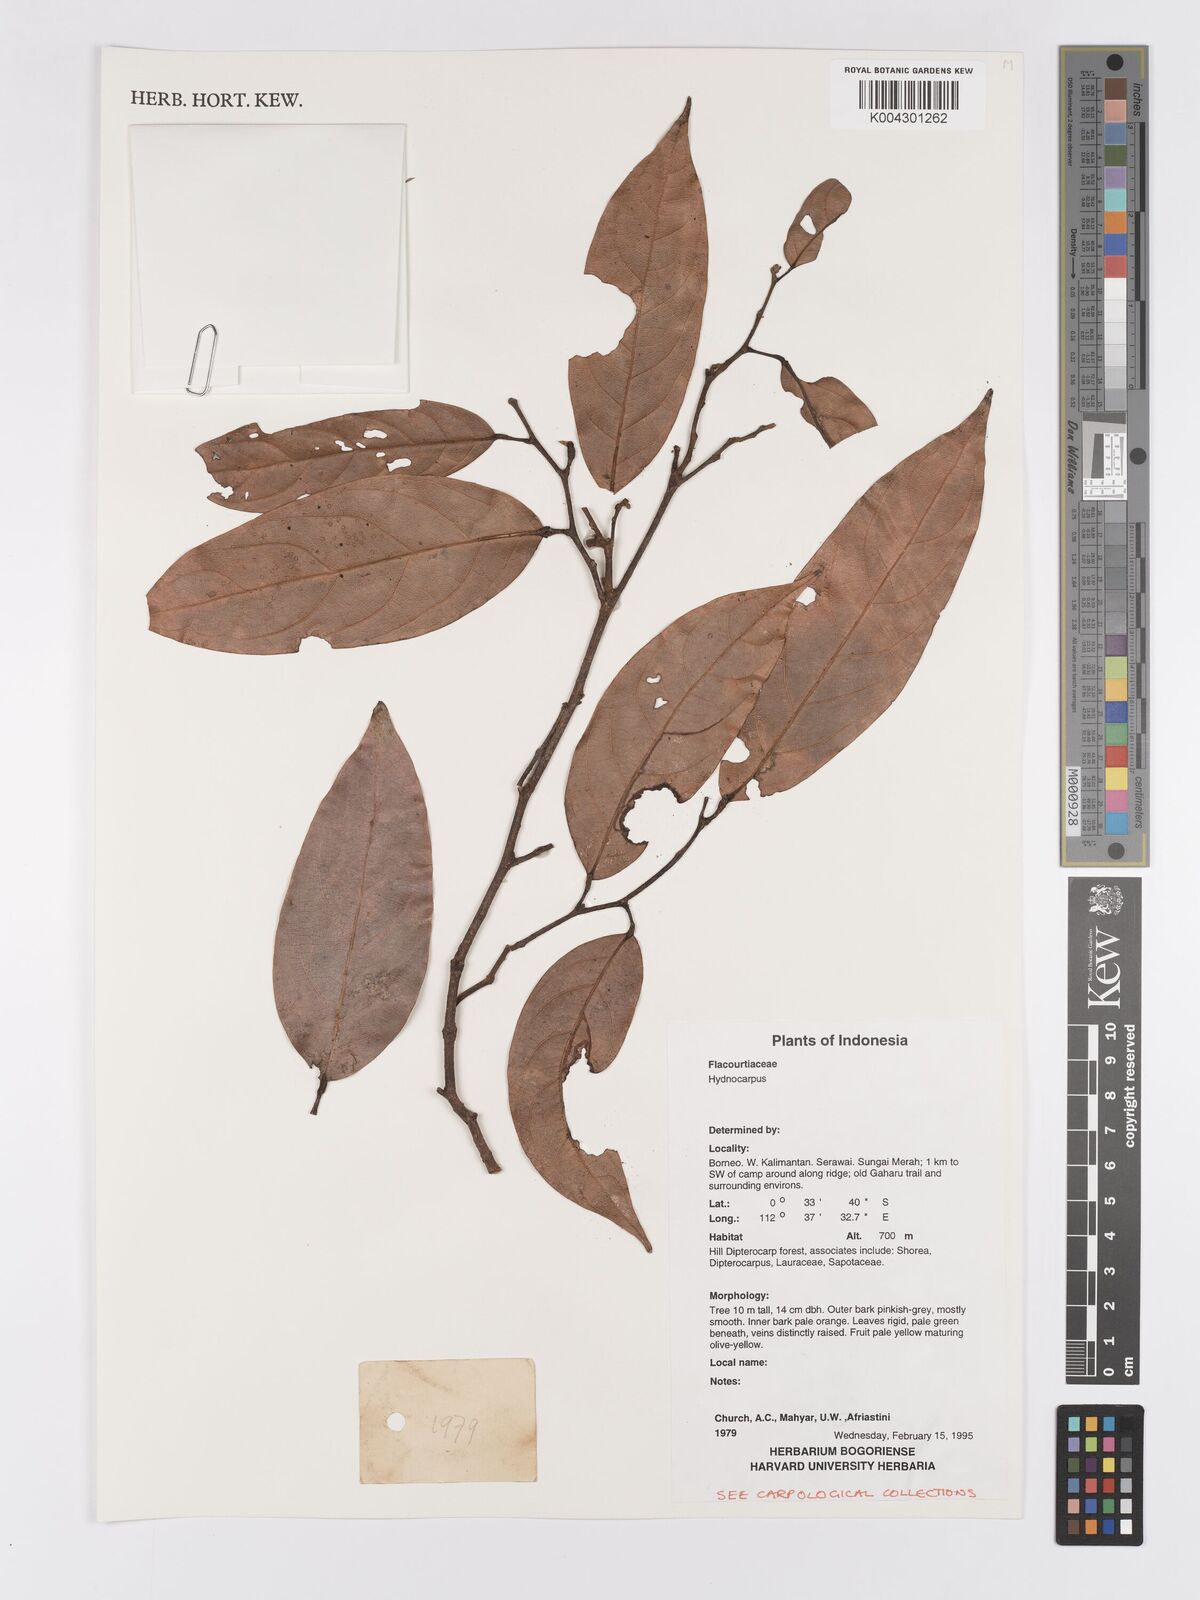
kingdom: Plantae
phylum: Tracheophyta
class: Magnoliopsida
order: Malpighiales
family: Achariaceae
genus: Hydnocarpus
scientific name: Hydnocarpus
